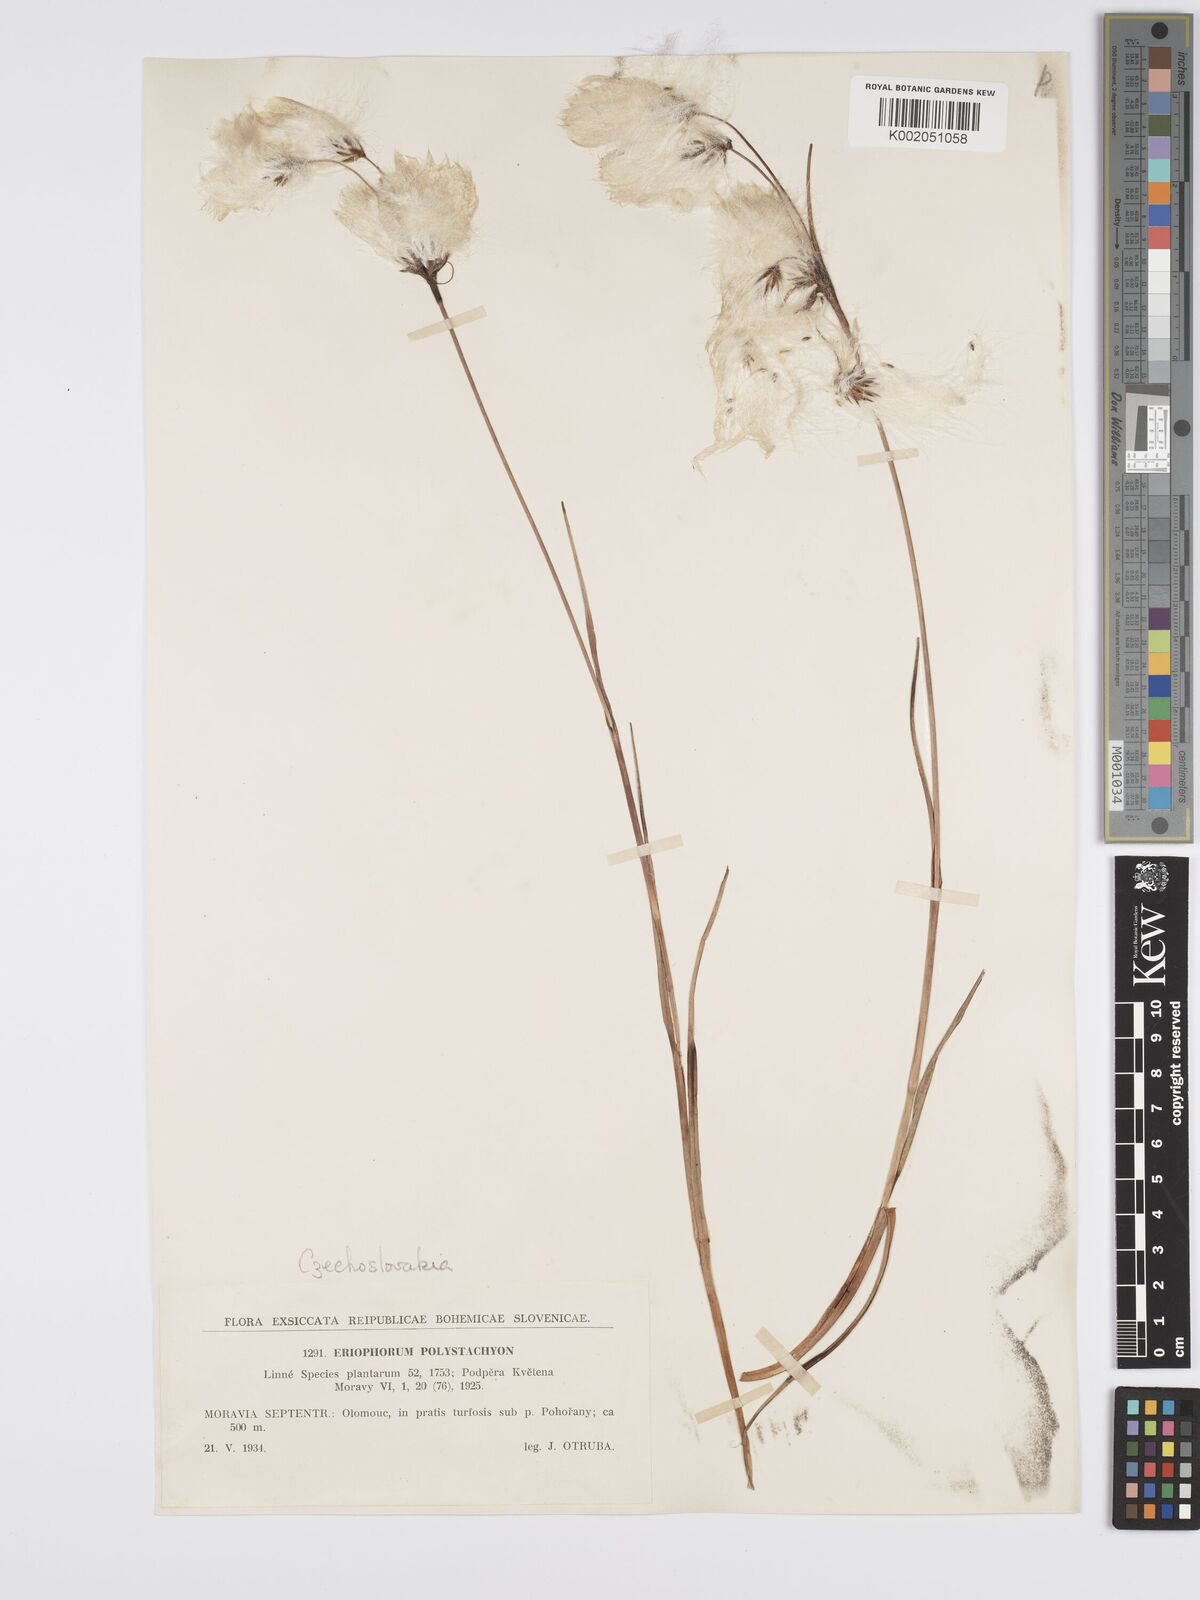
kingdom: Plantae
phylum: Tracheophyta
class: Liliopsida
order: Poales
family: Cyperaceae
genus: Eriophorum
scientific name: Eriophorum angustifolium
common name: Common cottongrass
